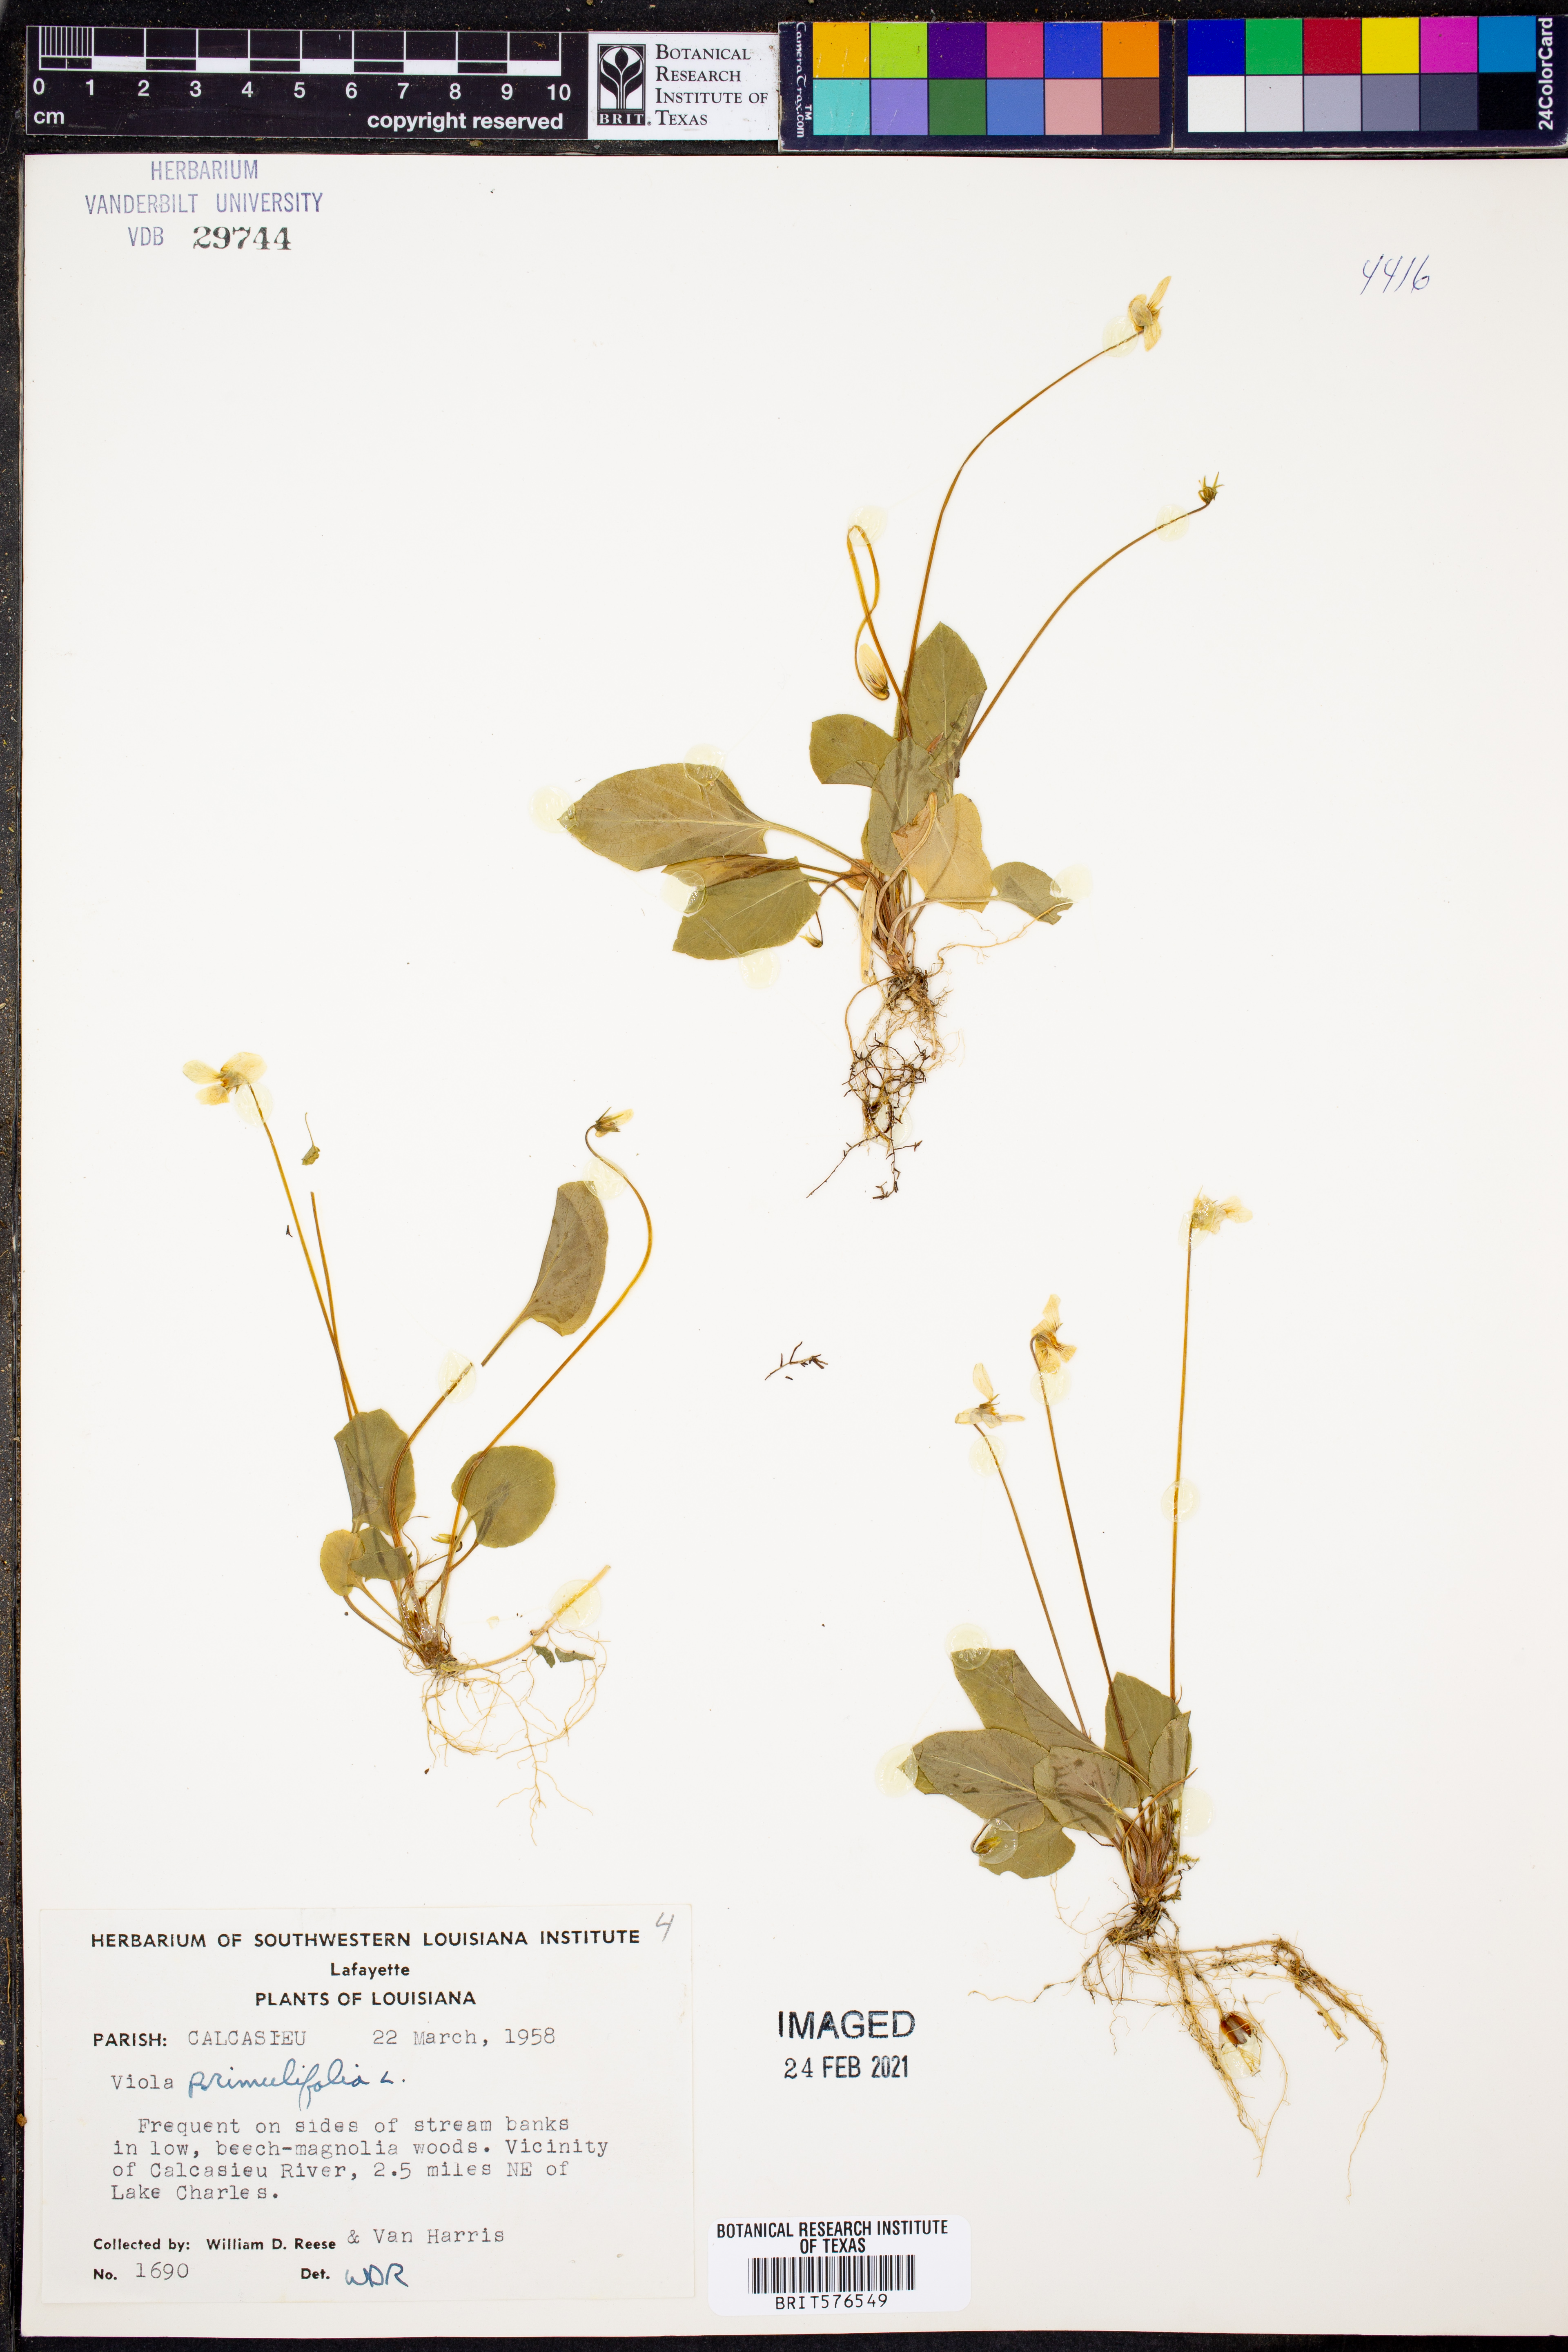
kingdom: Plantae
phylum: Tracheophyta
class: Magnoliopsida
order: Malpighiales
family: Violaceae
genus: Viola
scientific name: Viola primulifolia
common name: Primrose-leaf violet
